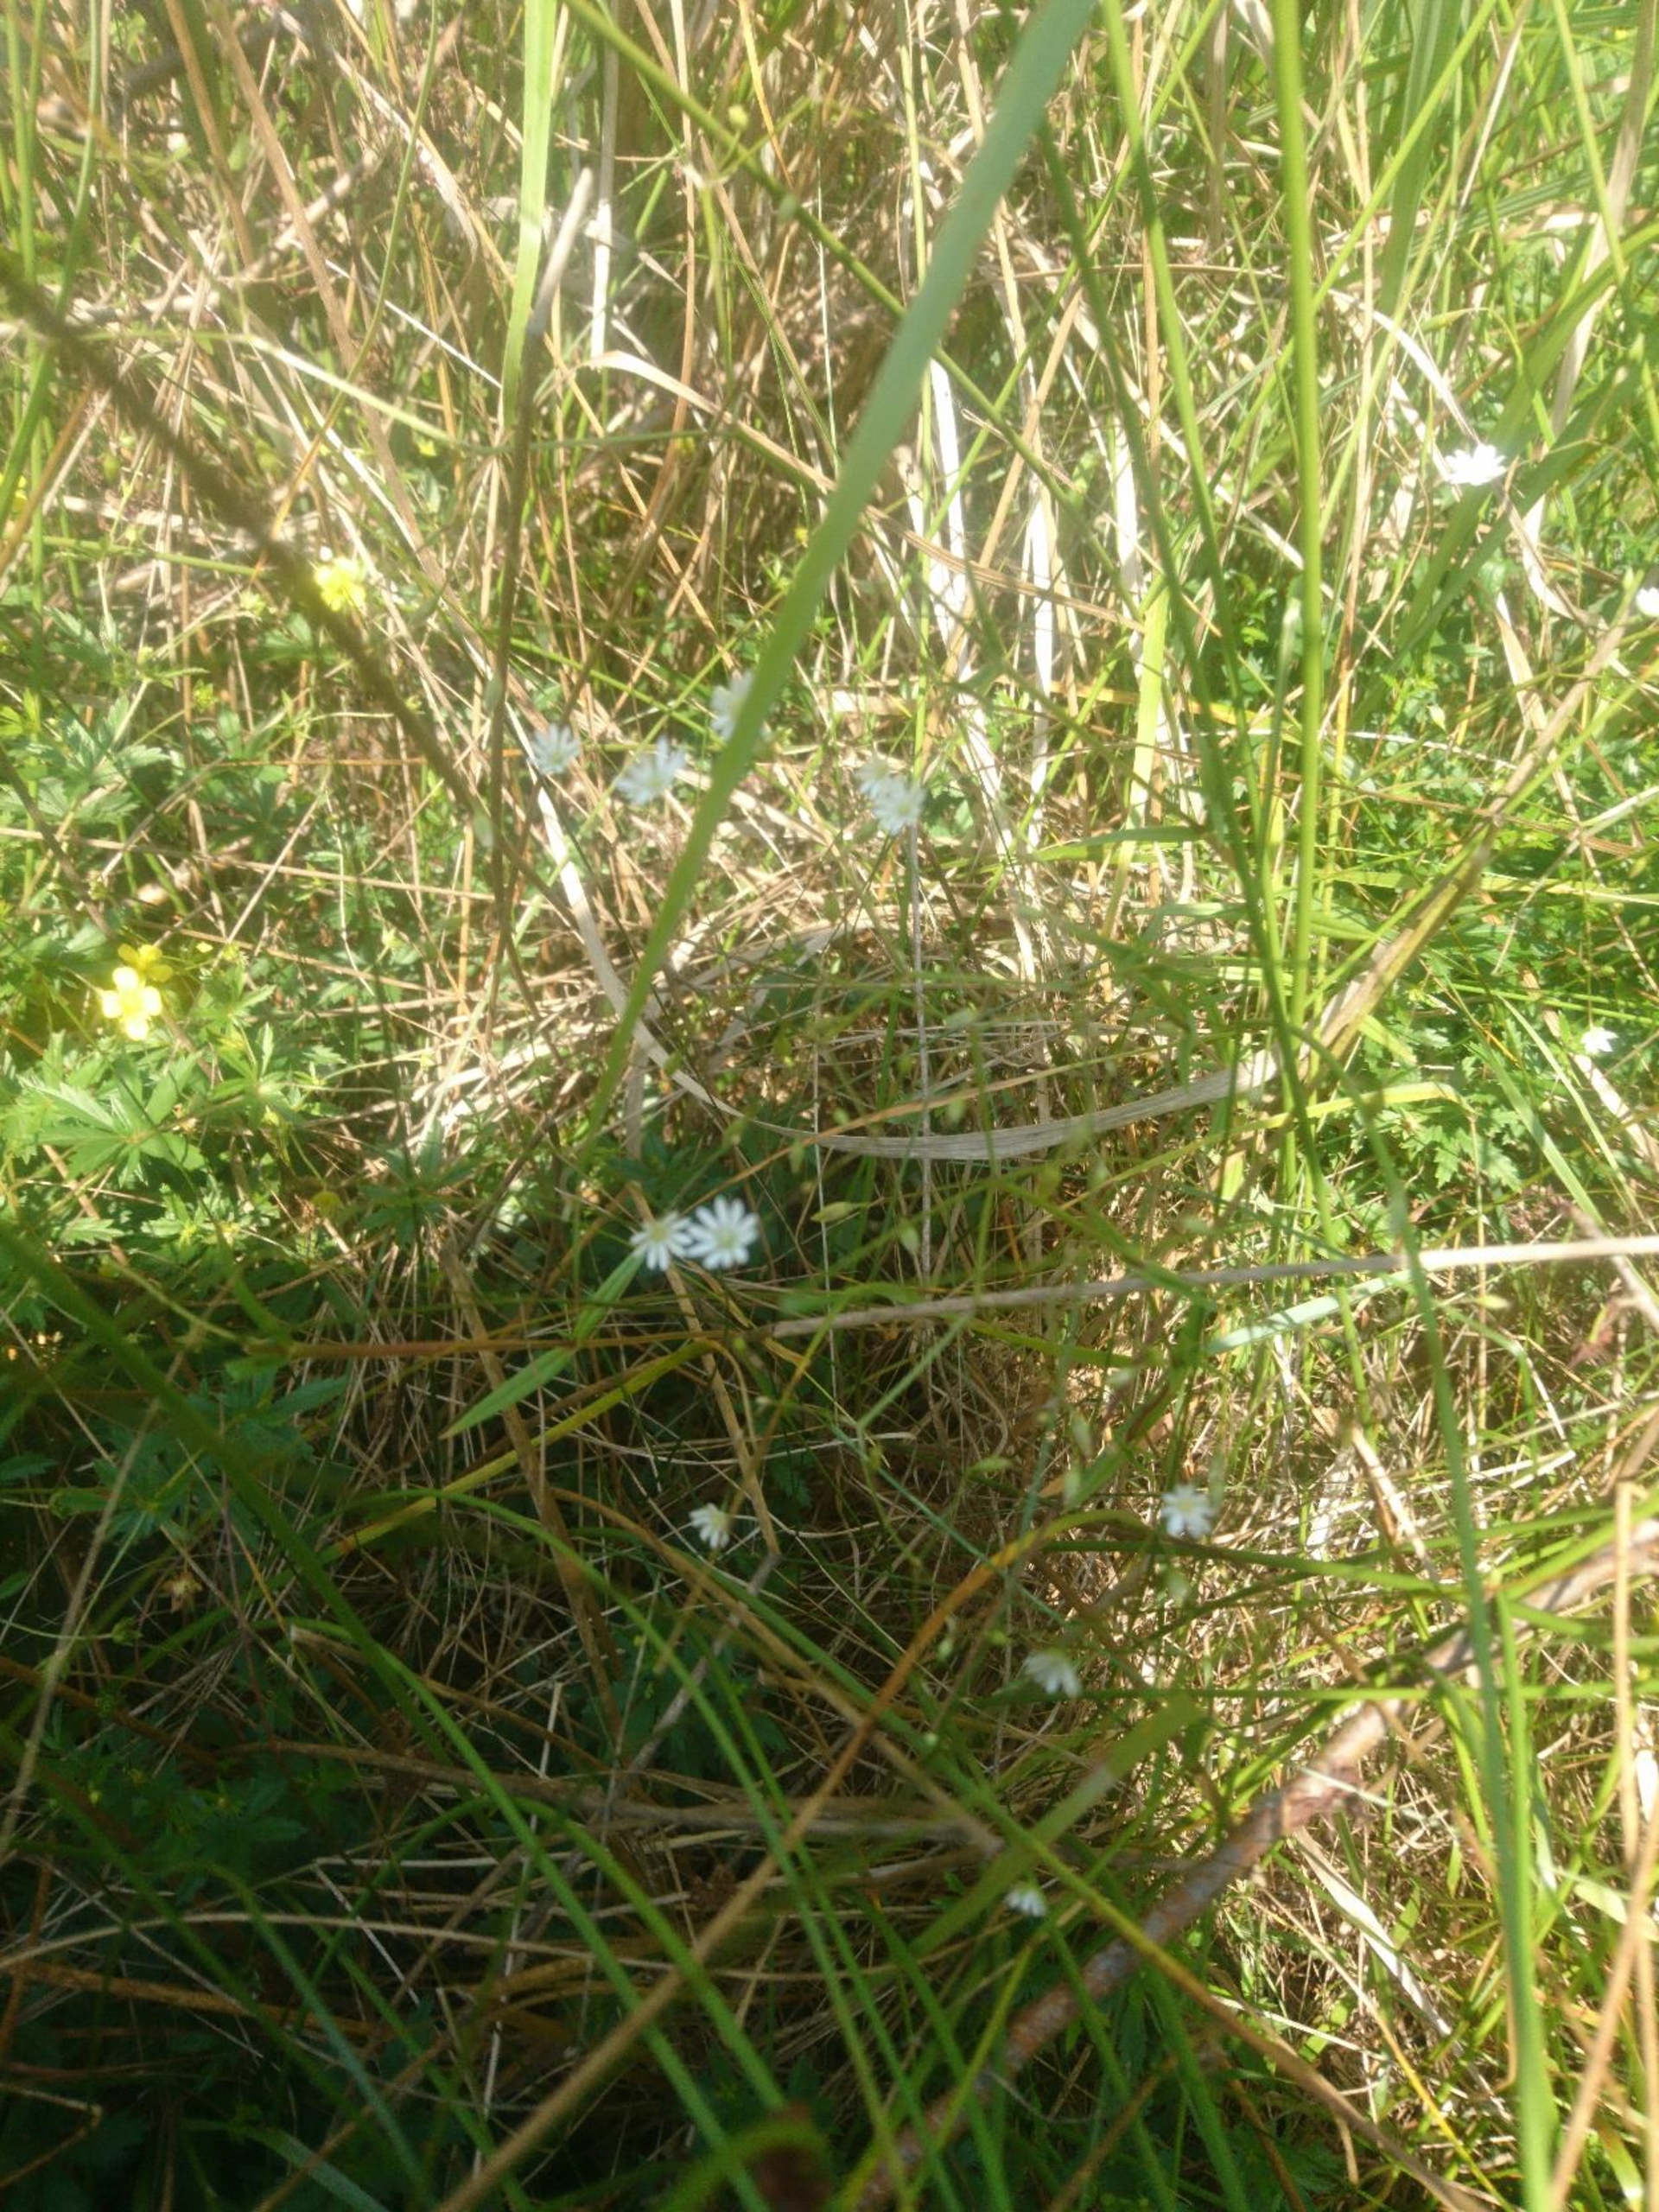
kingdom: Plantae
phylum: Tracheophyta
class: Magnoliopsida
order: Caryophyllales
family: Caryophyllaceae
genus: Stellaria
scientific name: Stellaria graminea
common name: Græsbladet fladstjerne
